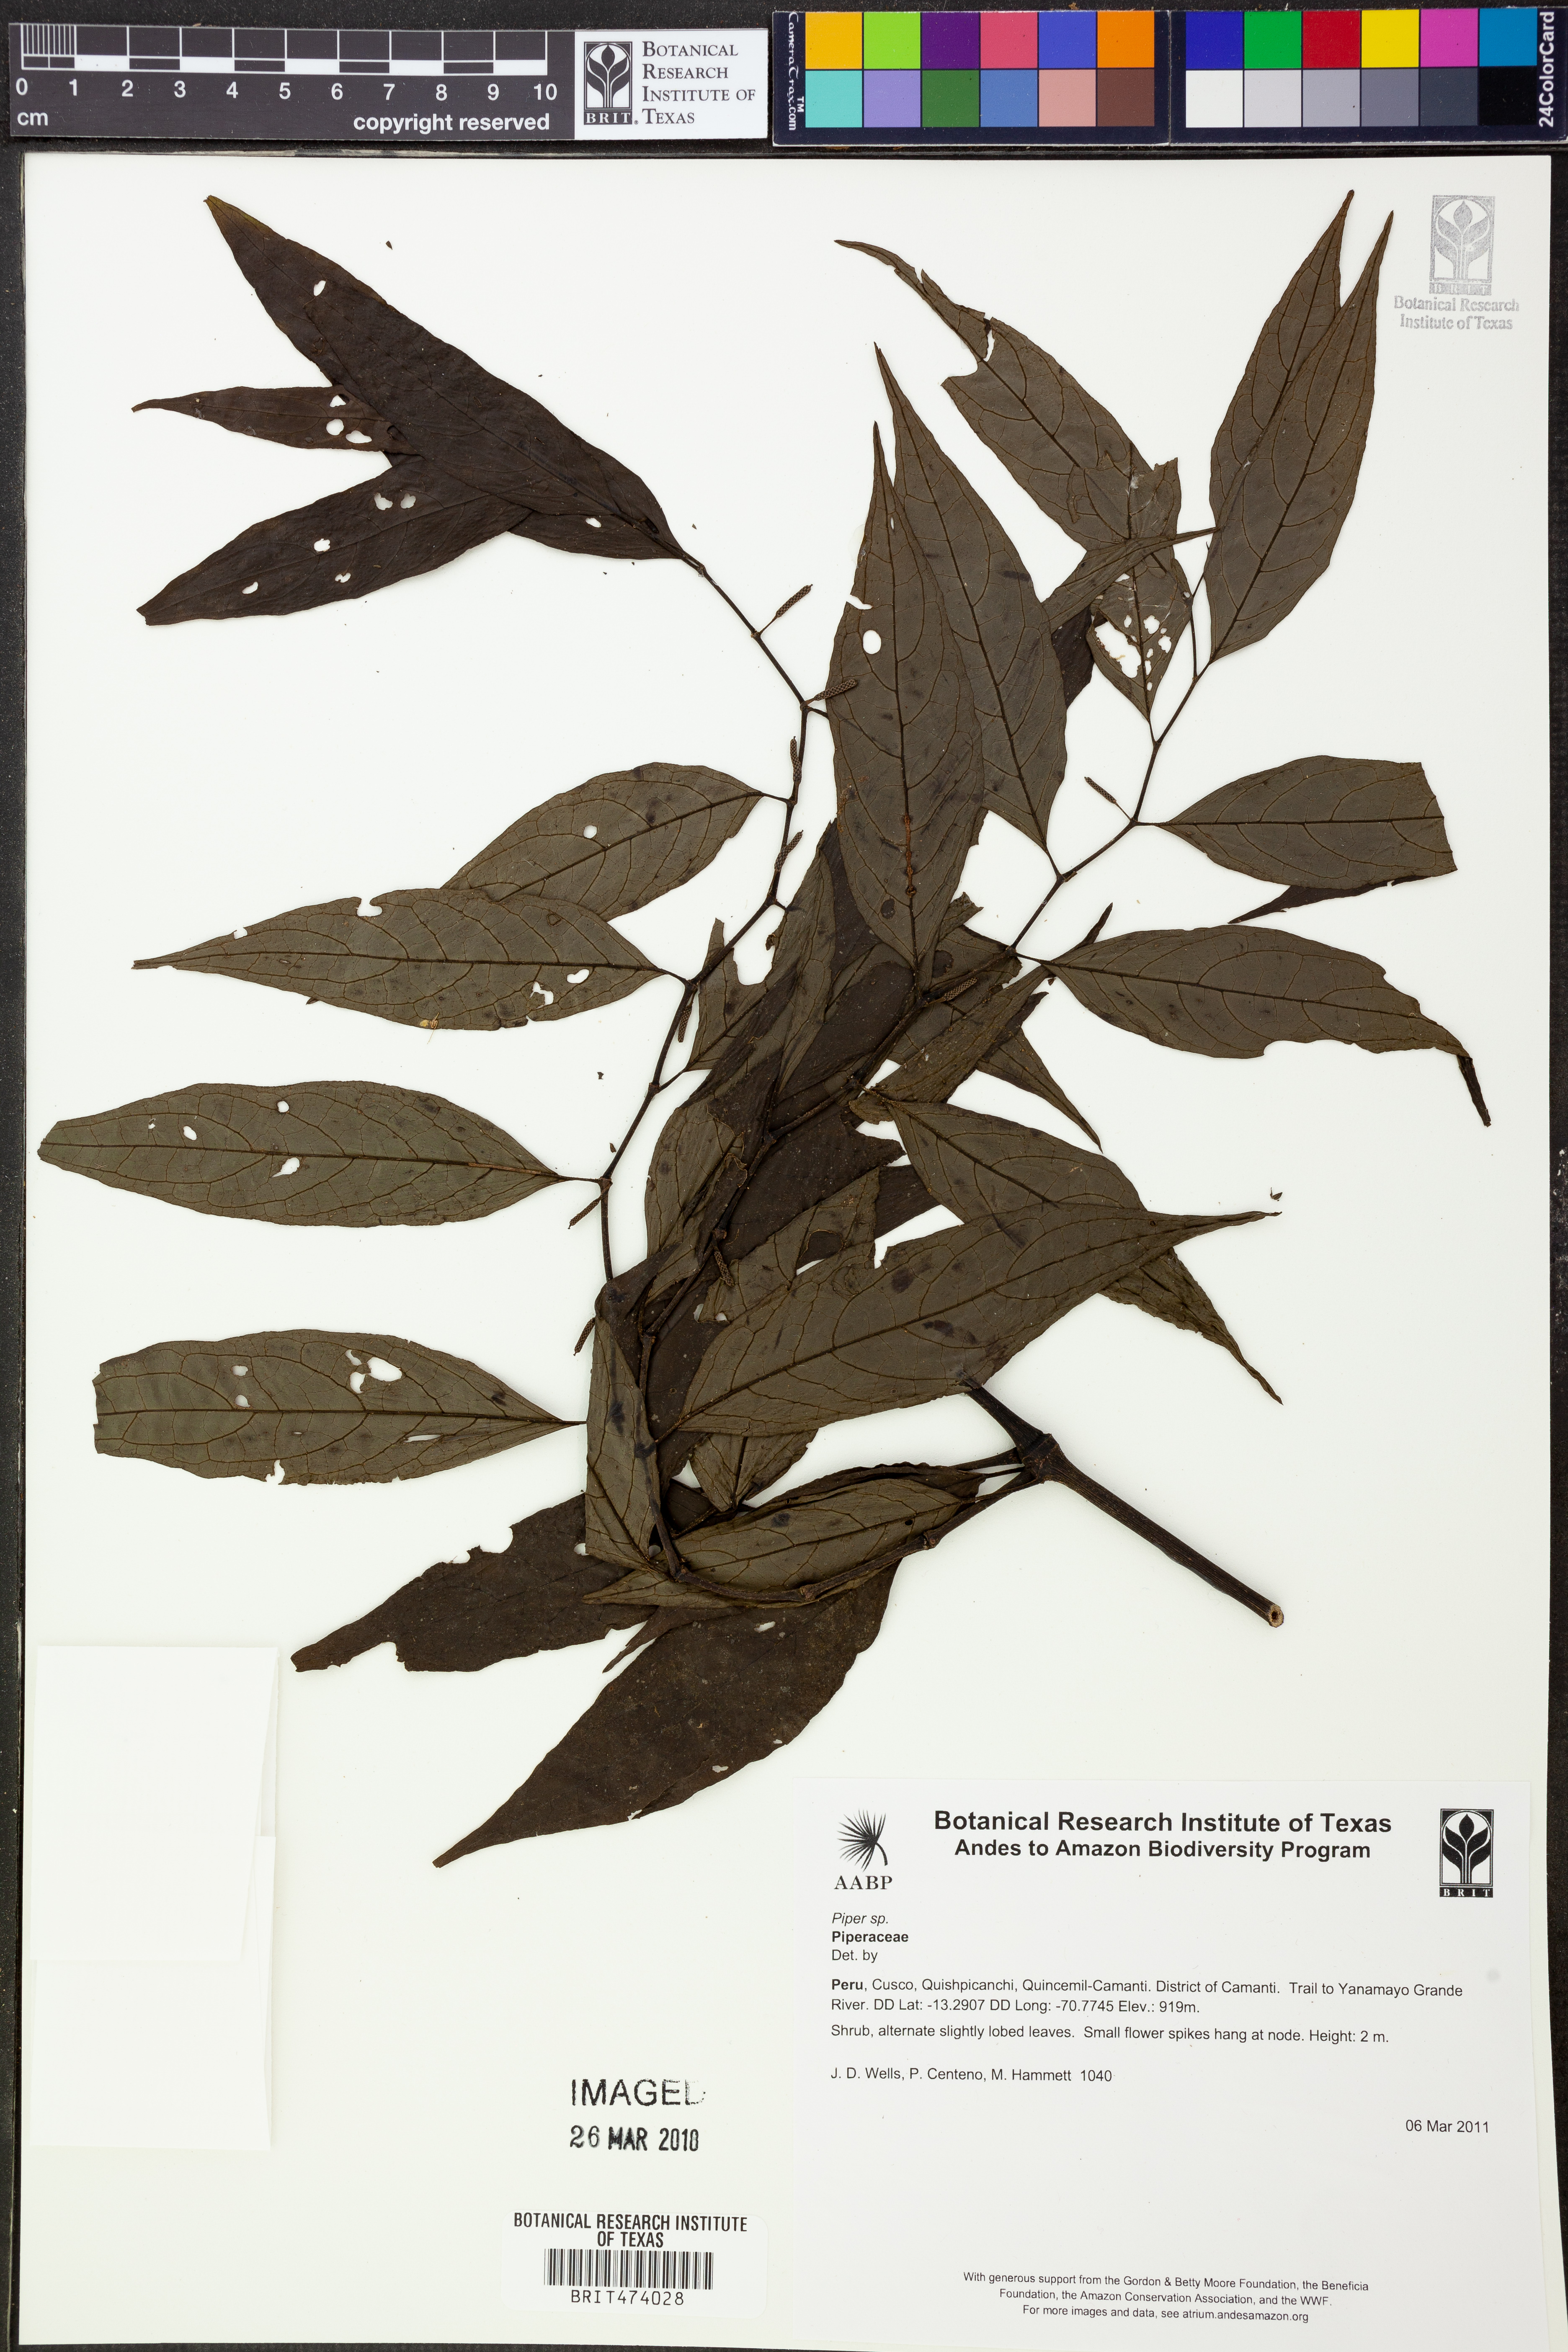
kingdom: Plantae
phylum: Tracheophyta
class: Magnoliopsida
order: Piperales
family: Piperaceae
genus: Piper
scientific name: Piper
